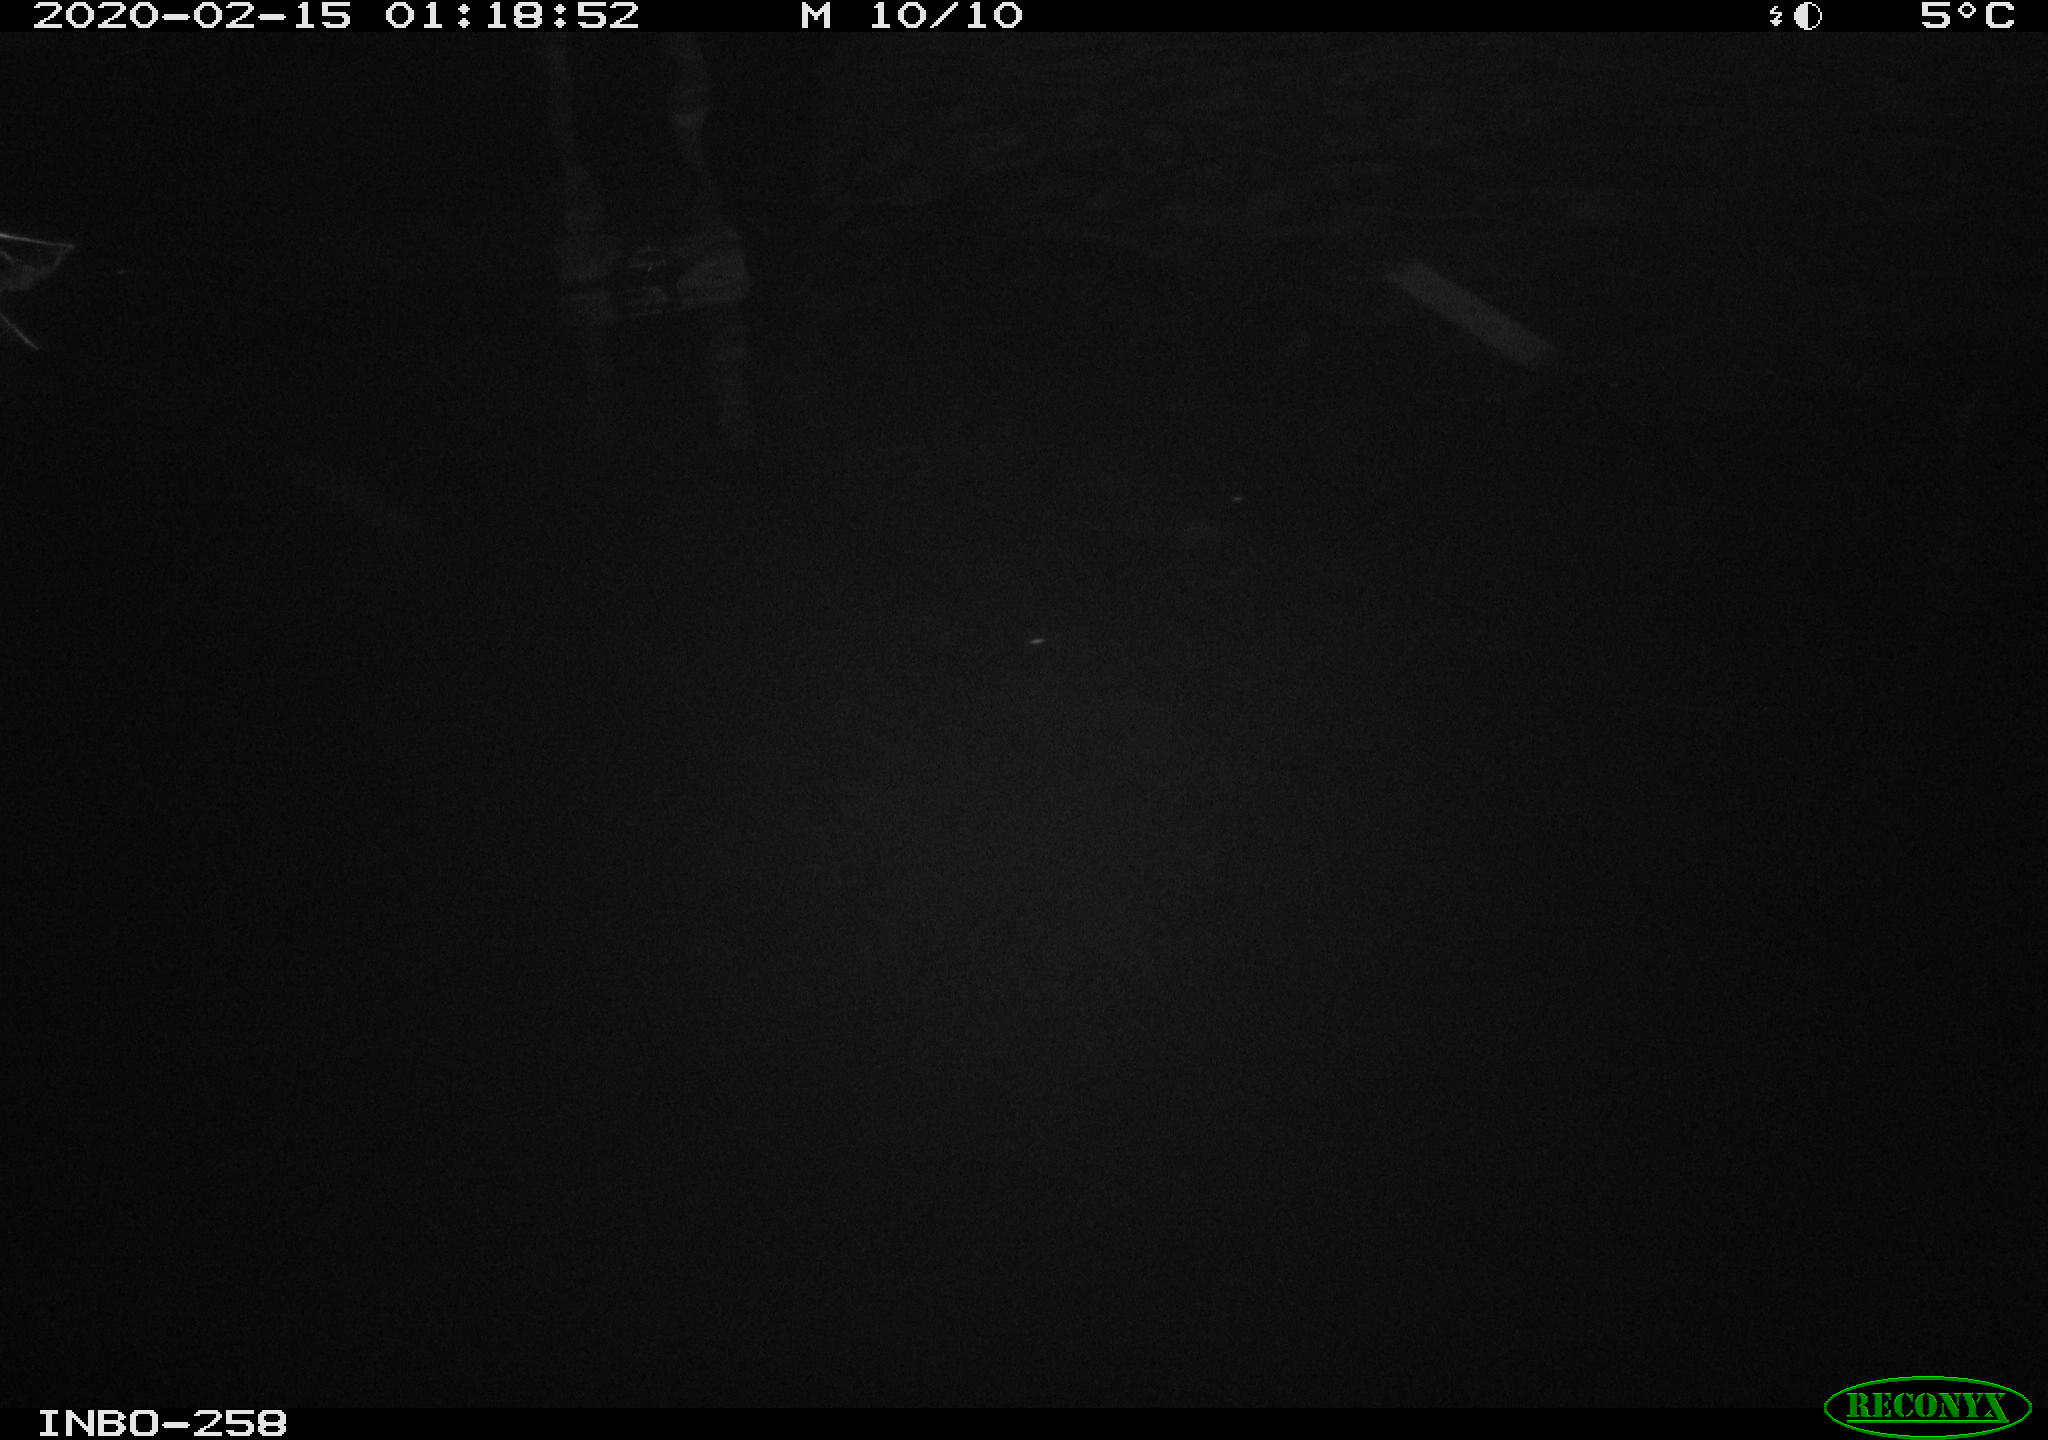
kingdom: Animalia
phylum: Chordata
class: Aves
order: Anseriformes
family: Anatidae
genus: Anas
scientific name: Anas platyrhynchos
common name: Mallard
